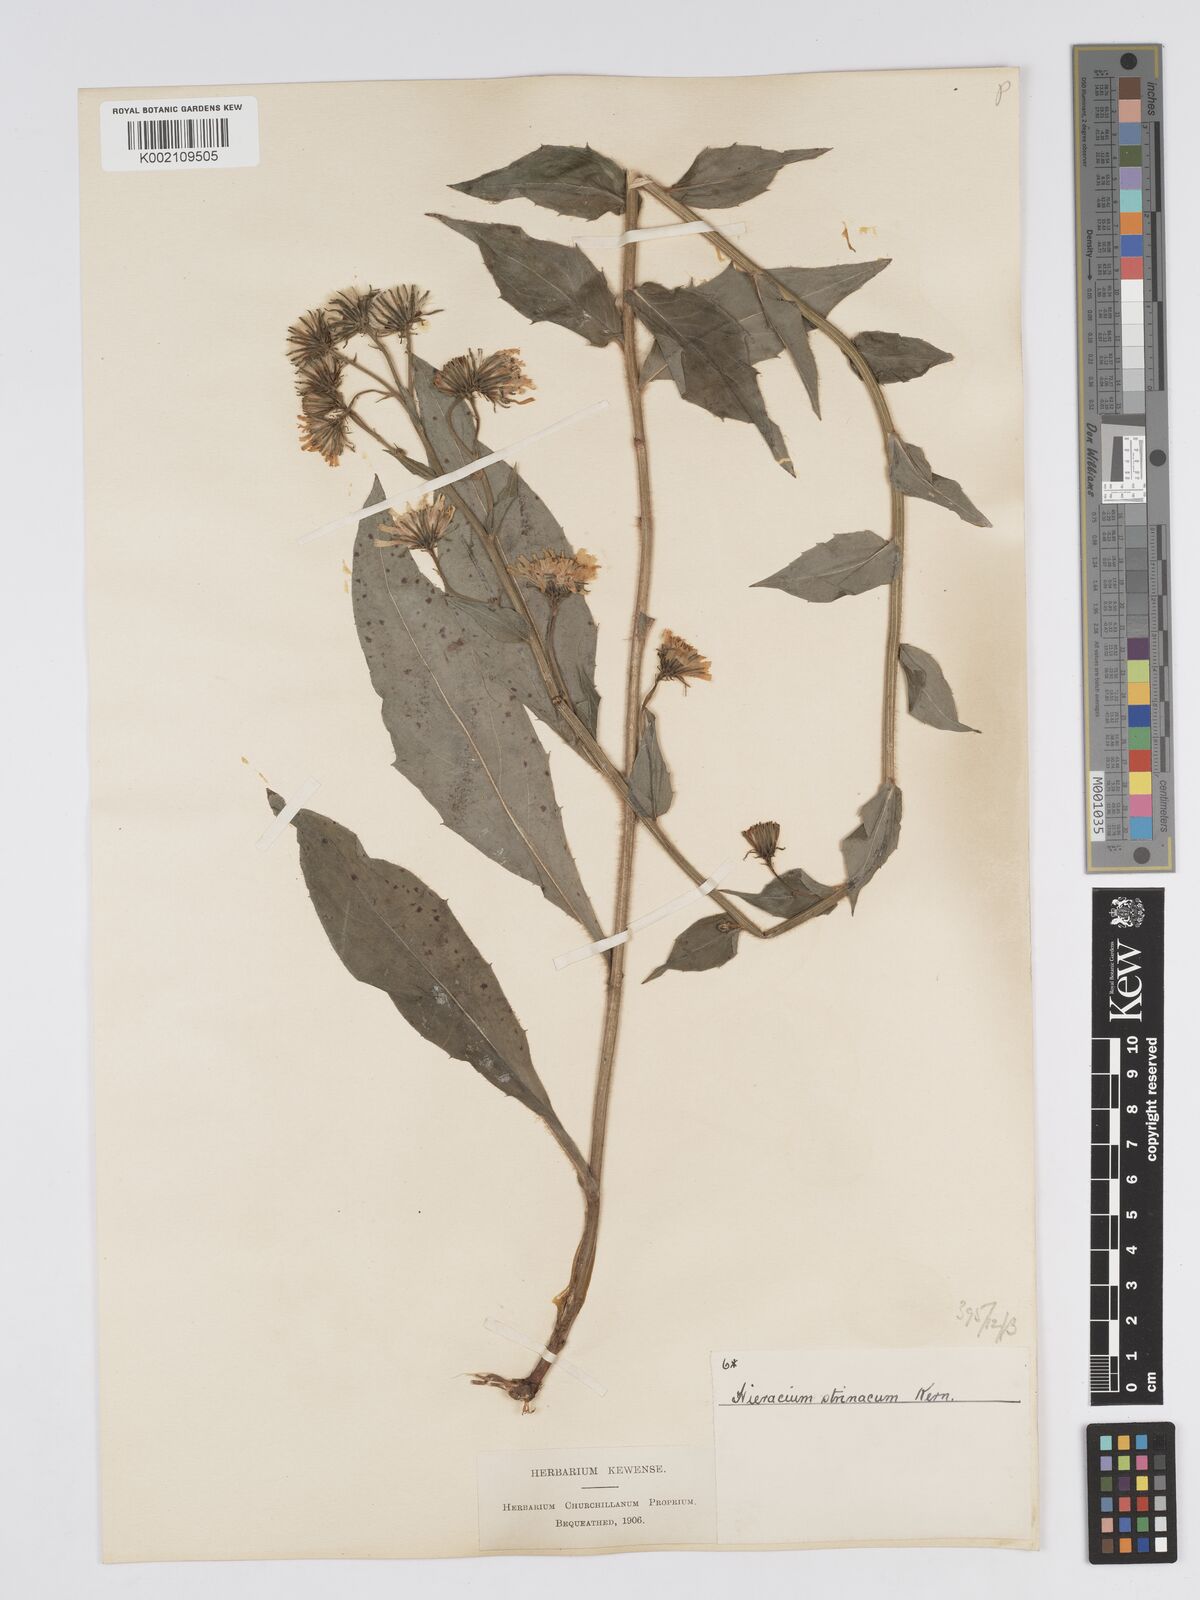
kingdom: Plantae
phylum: Tracheophyta
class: Magnoliopsida
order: Asterales
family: Asteraceae
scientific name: Asteraceae
